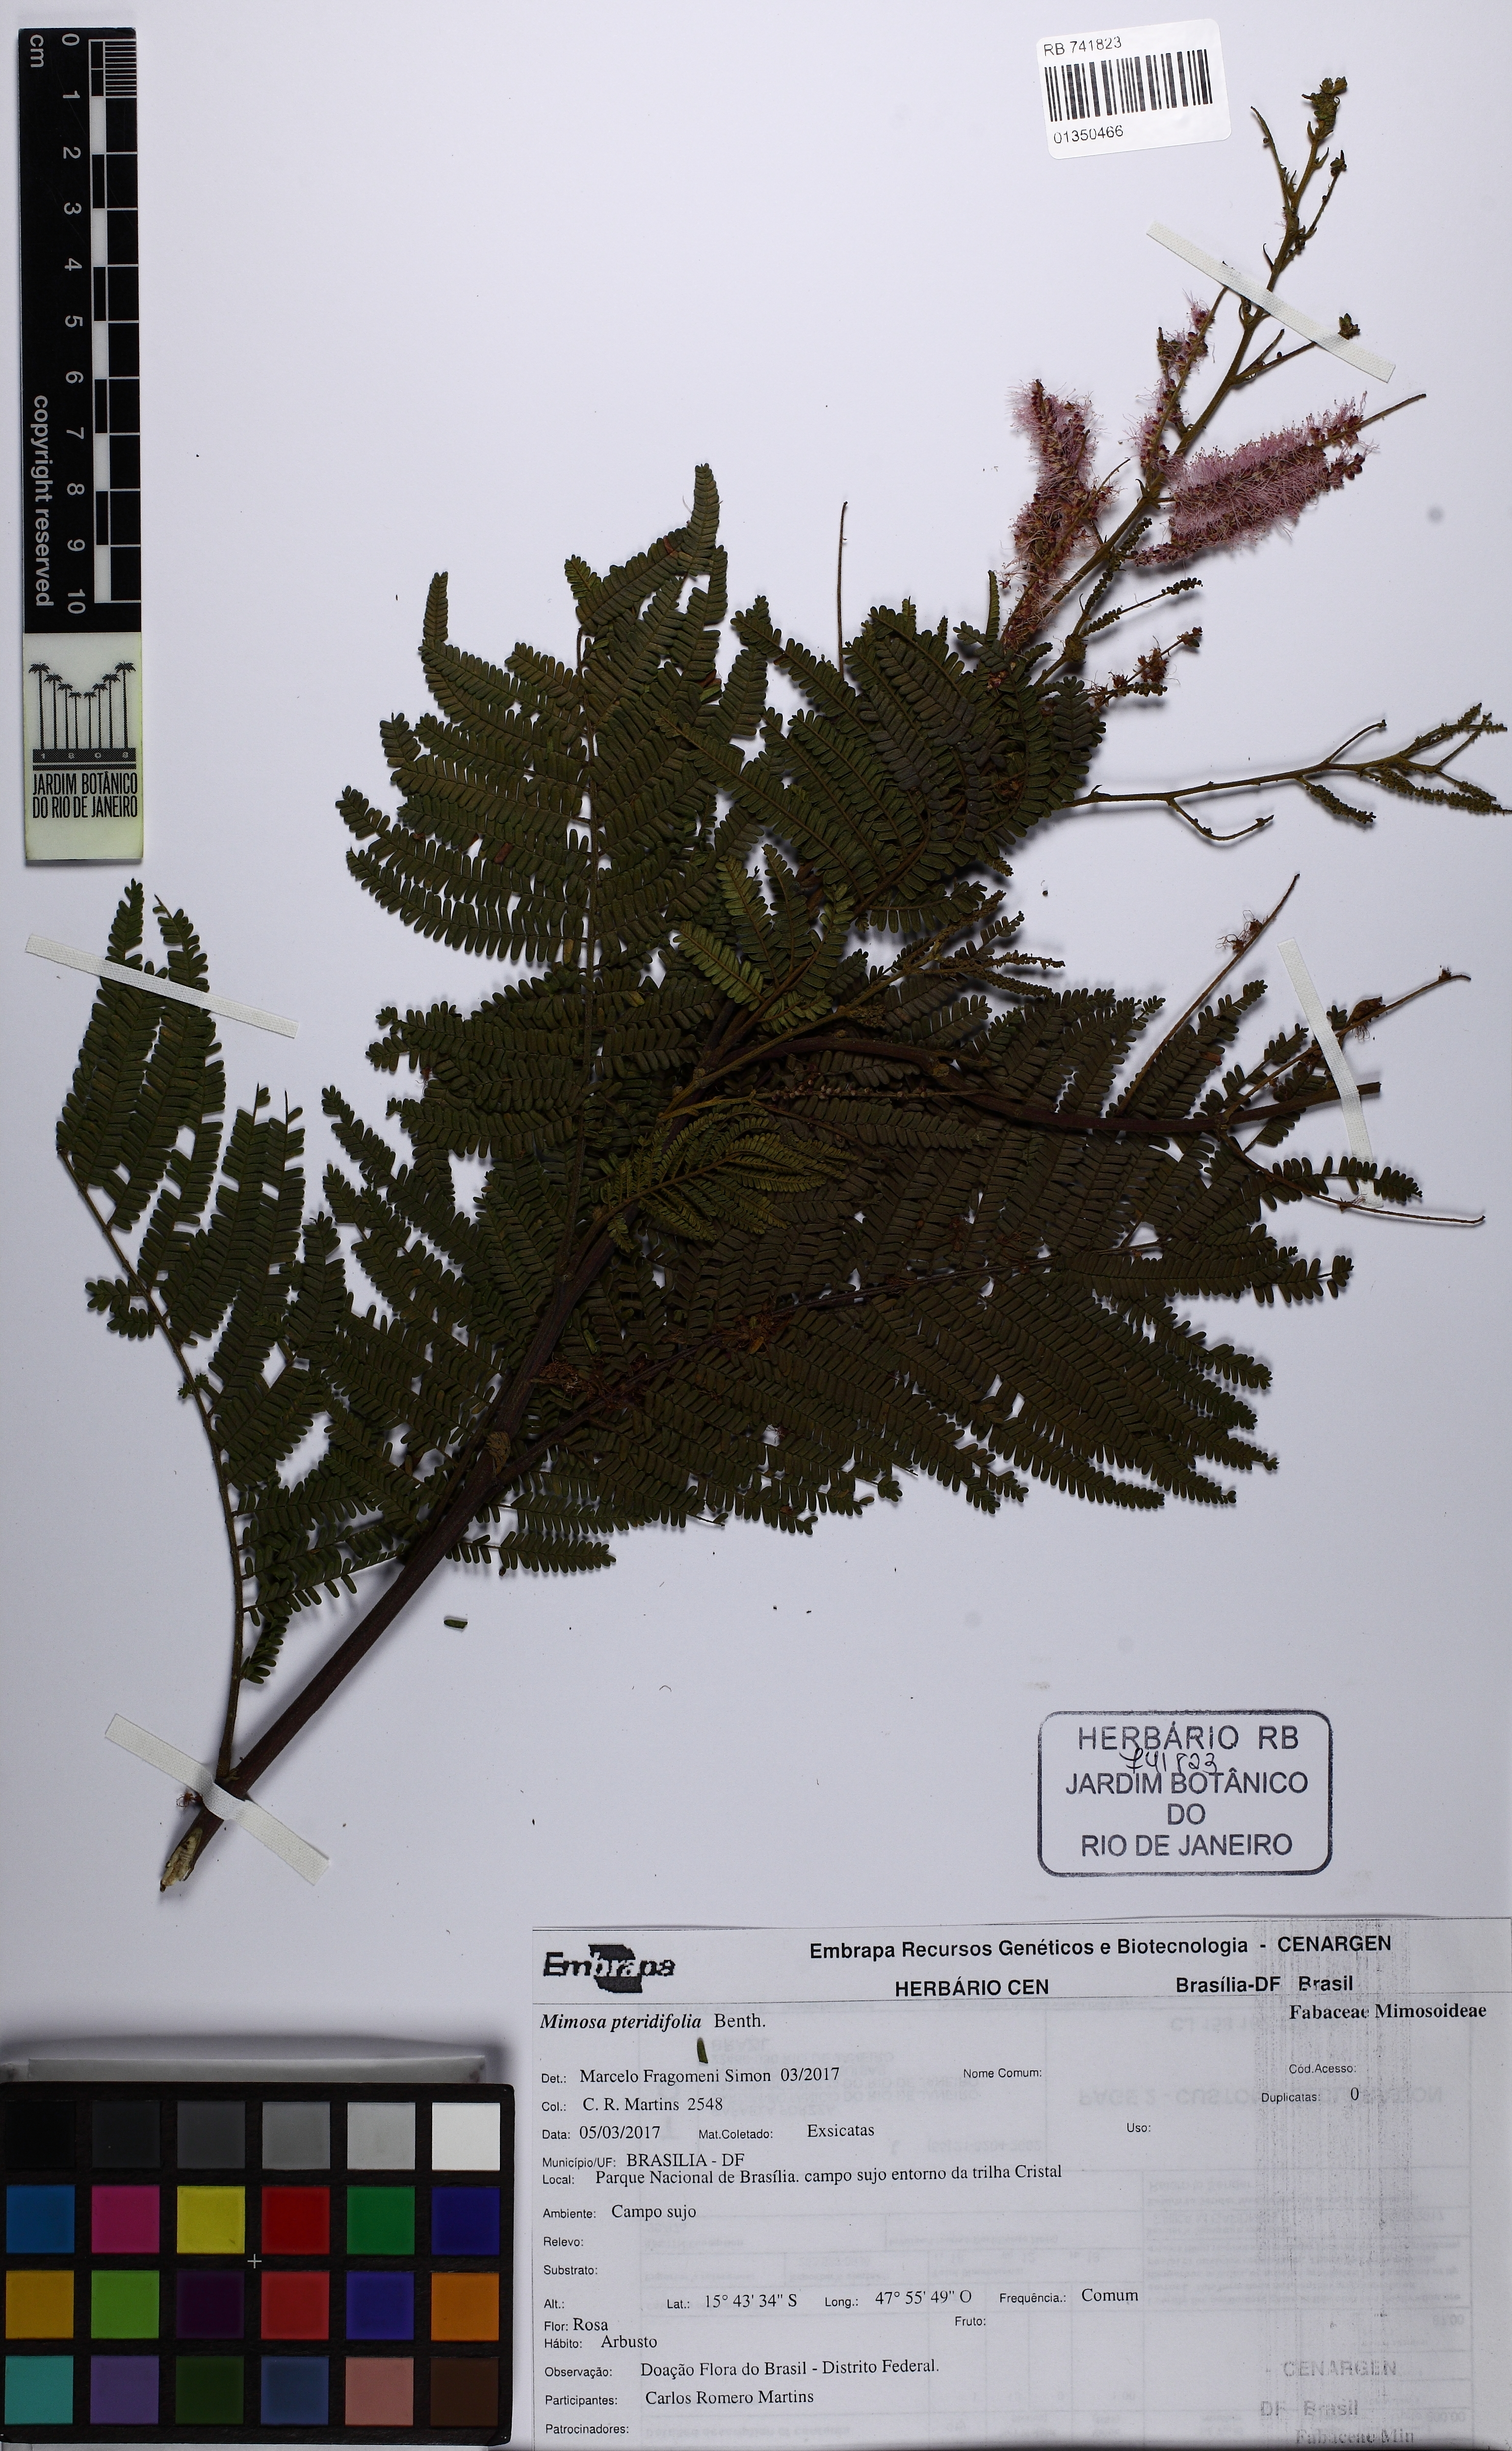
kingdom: Plantae
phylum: Tracheophyta
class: Magnoliopsida
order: Fabales
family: Fabaceae
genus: Mimosa
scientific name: Mimosa pteridifolia
